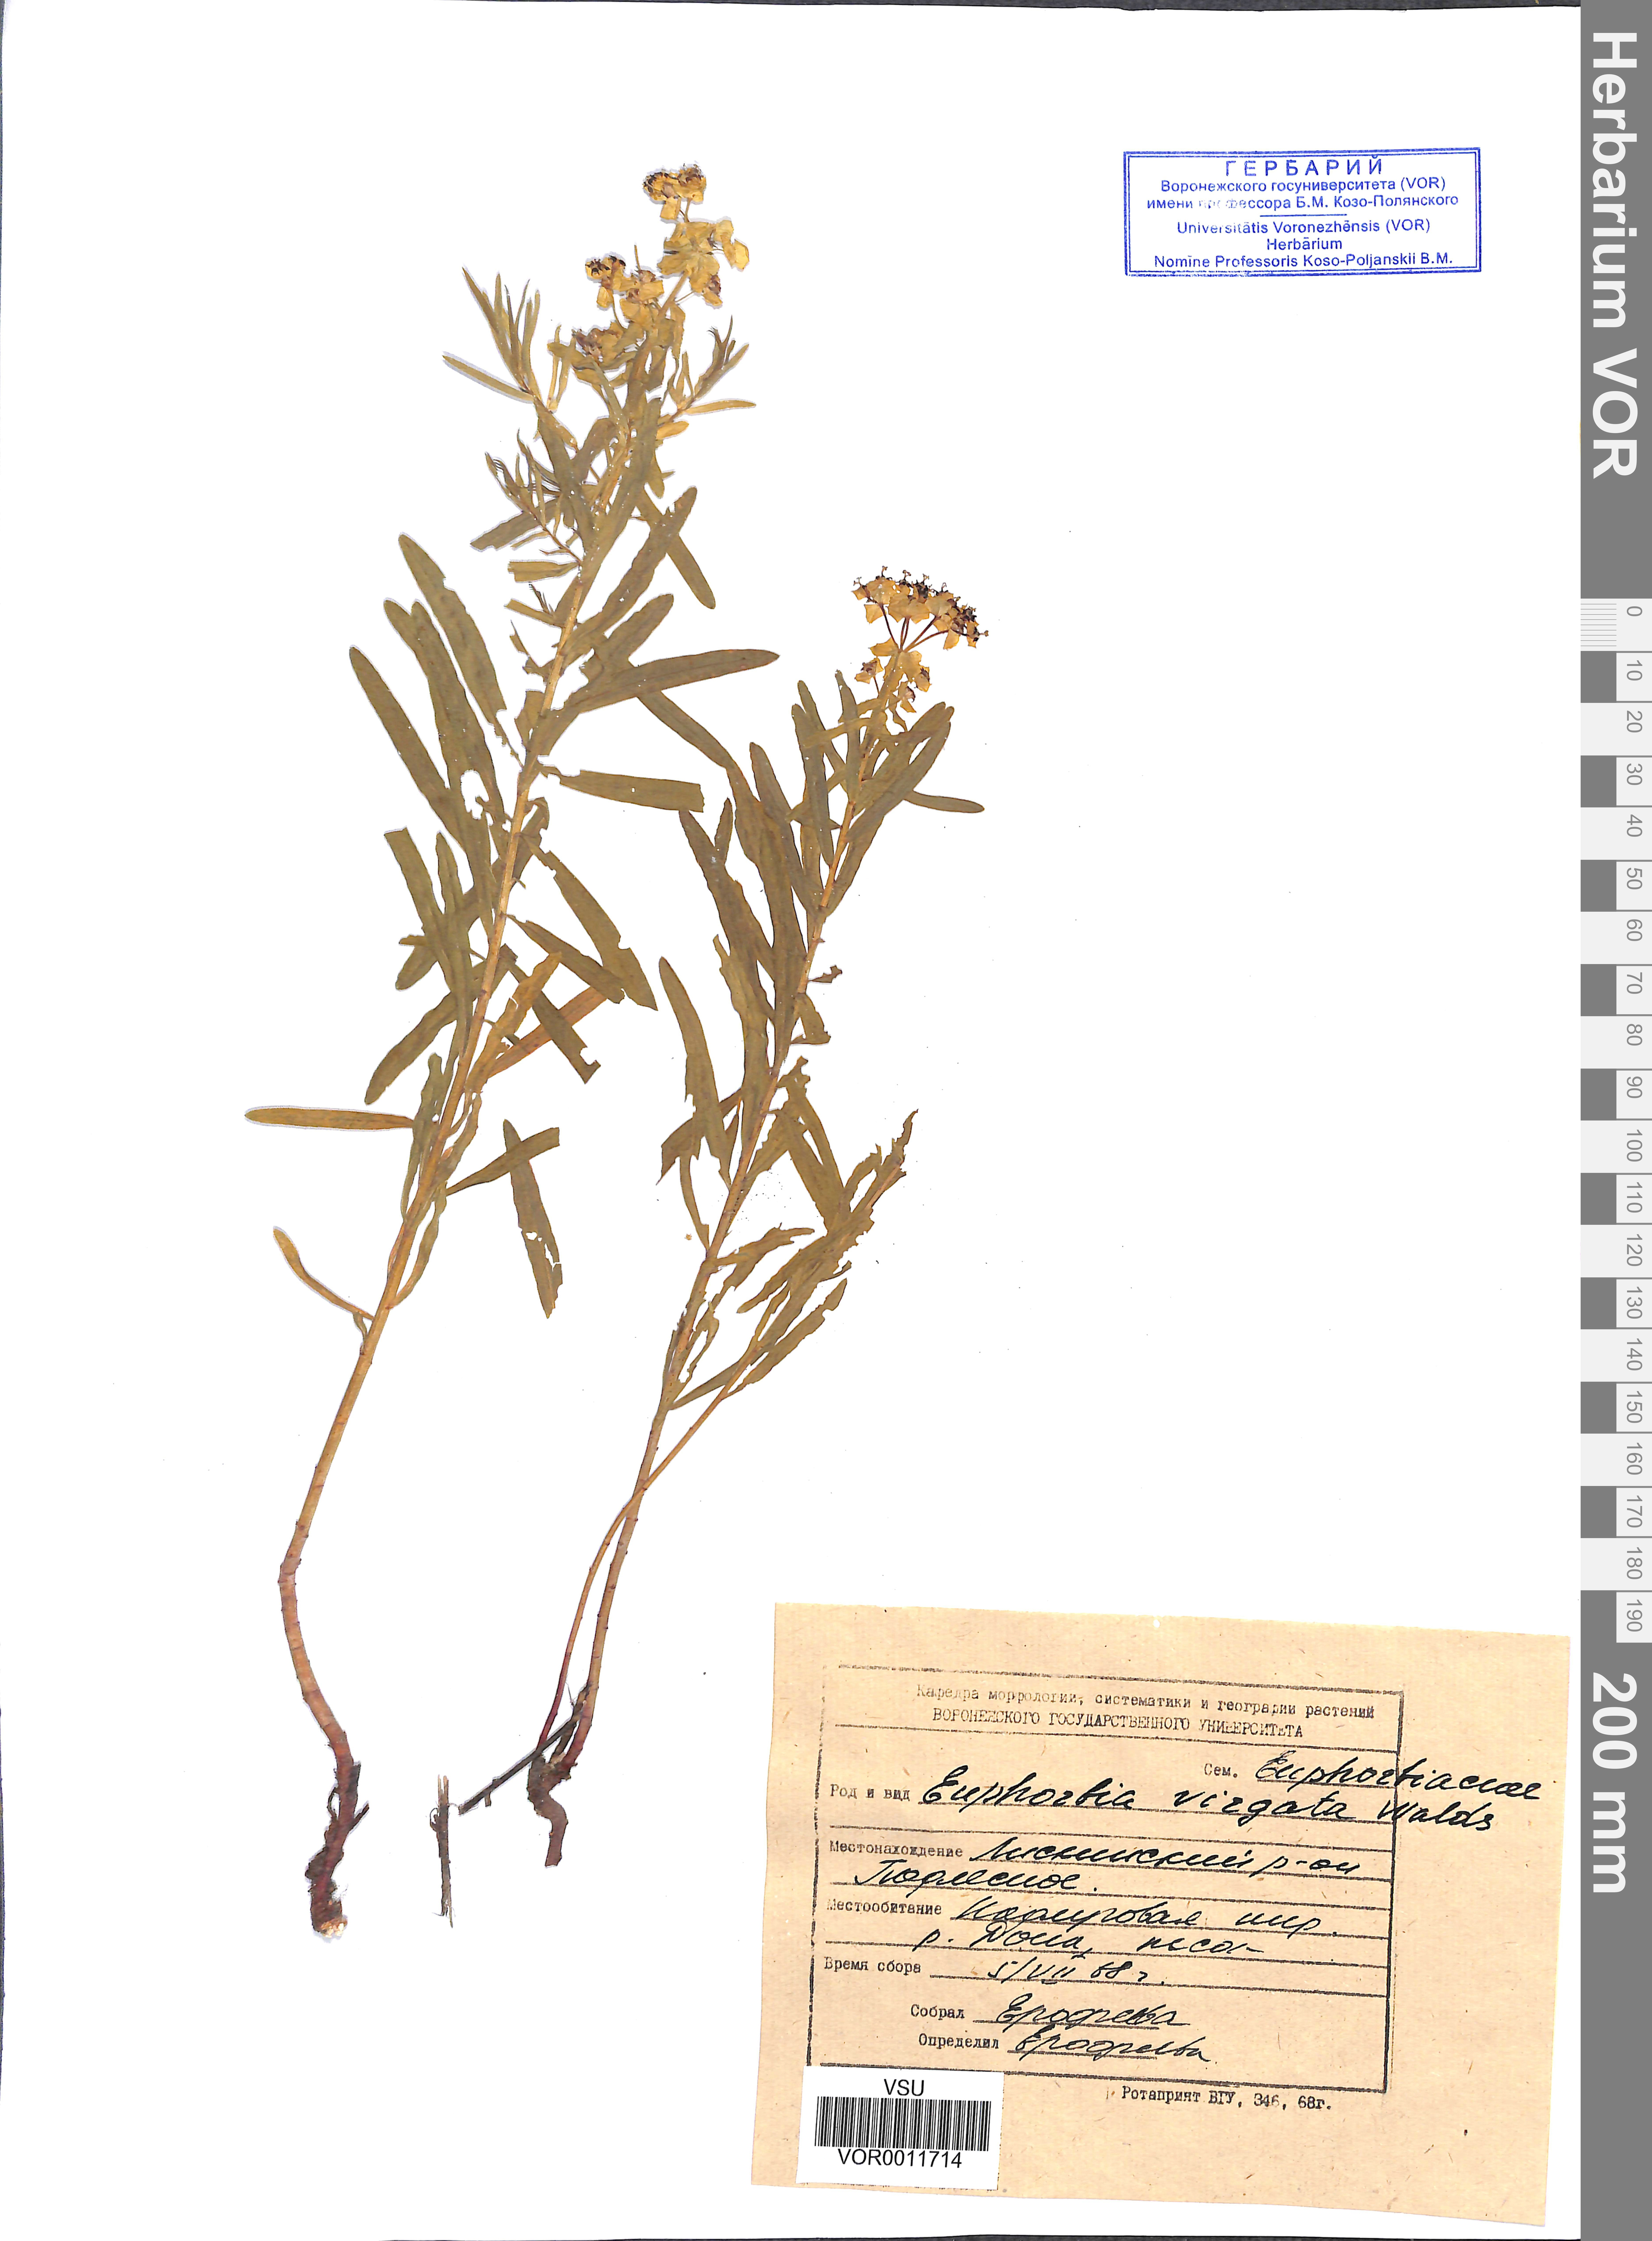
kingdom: Plantae
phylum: Tracheophyta
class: Magnoliopsida
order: Malpighiales
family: Euphorbiaceae
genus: Euphorbia
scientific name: Euphorbia virgata
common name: Leafy spurge
